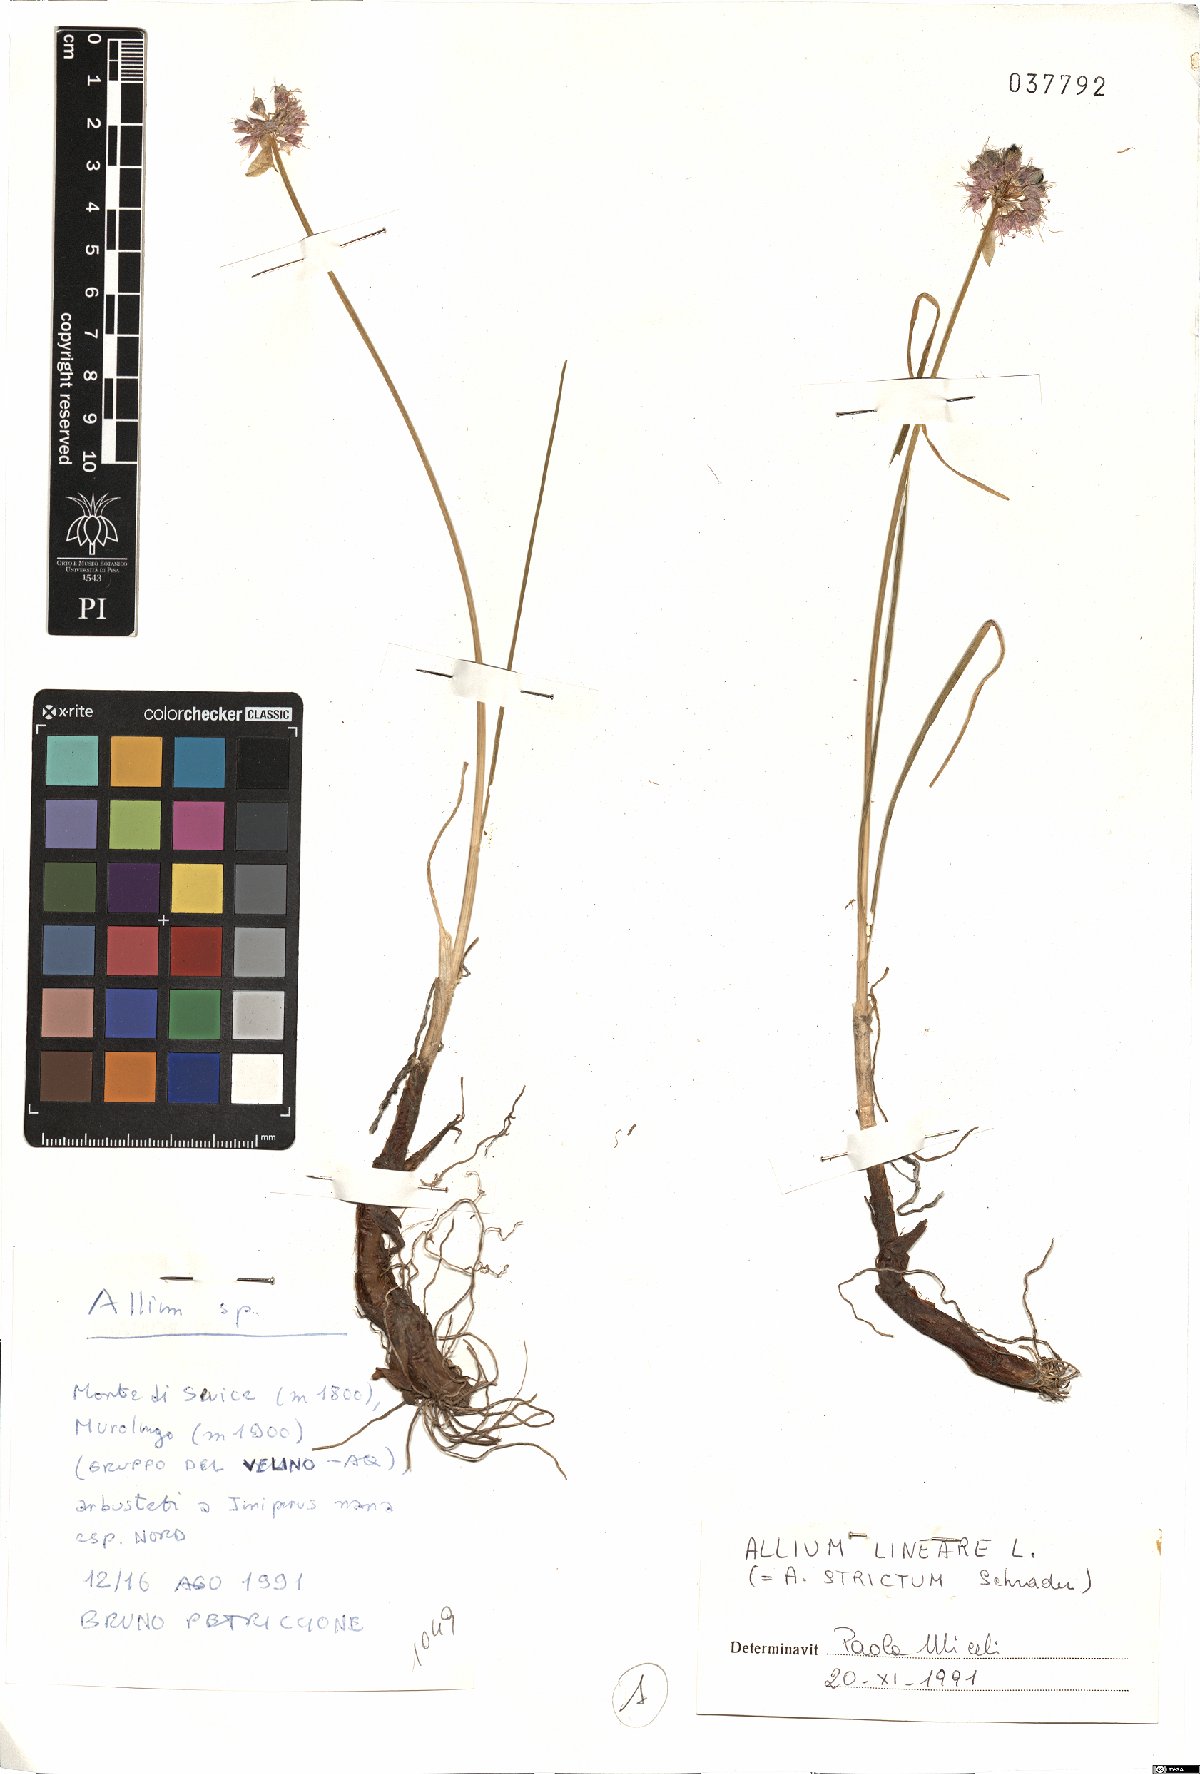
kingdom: Plantae
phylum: Tracheophyta
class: Liliopsida
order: Asparagales
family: Amaryllidaceae
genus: Allium
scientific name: Allium ducissae
